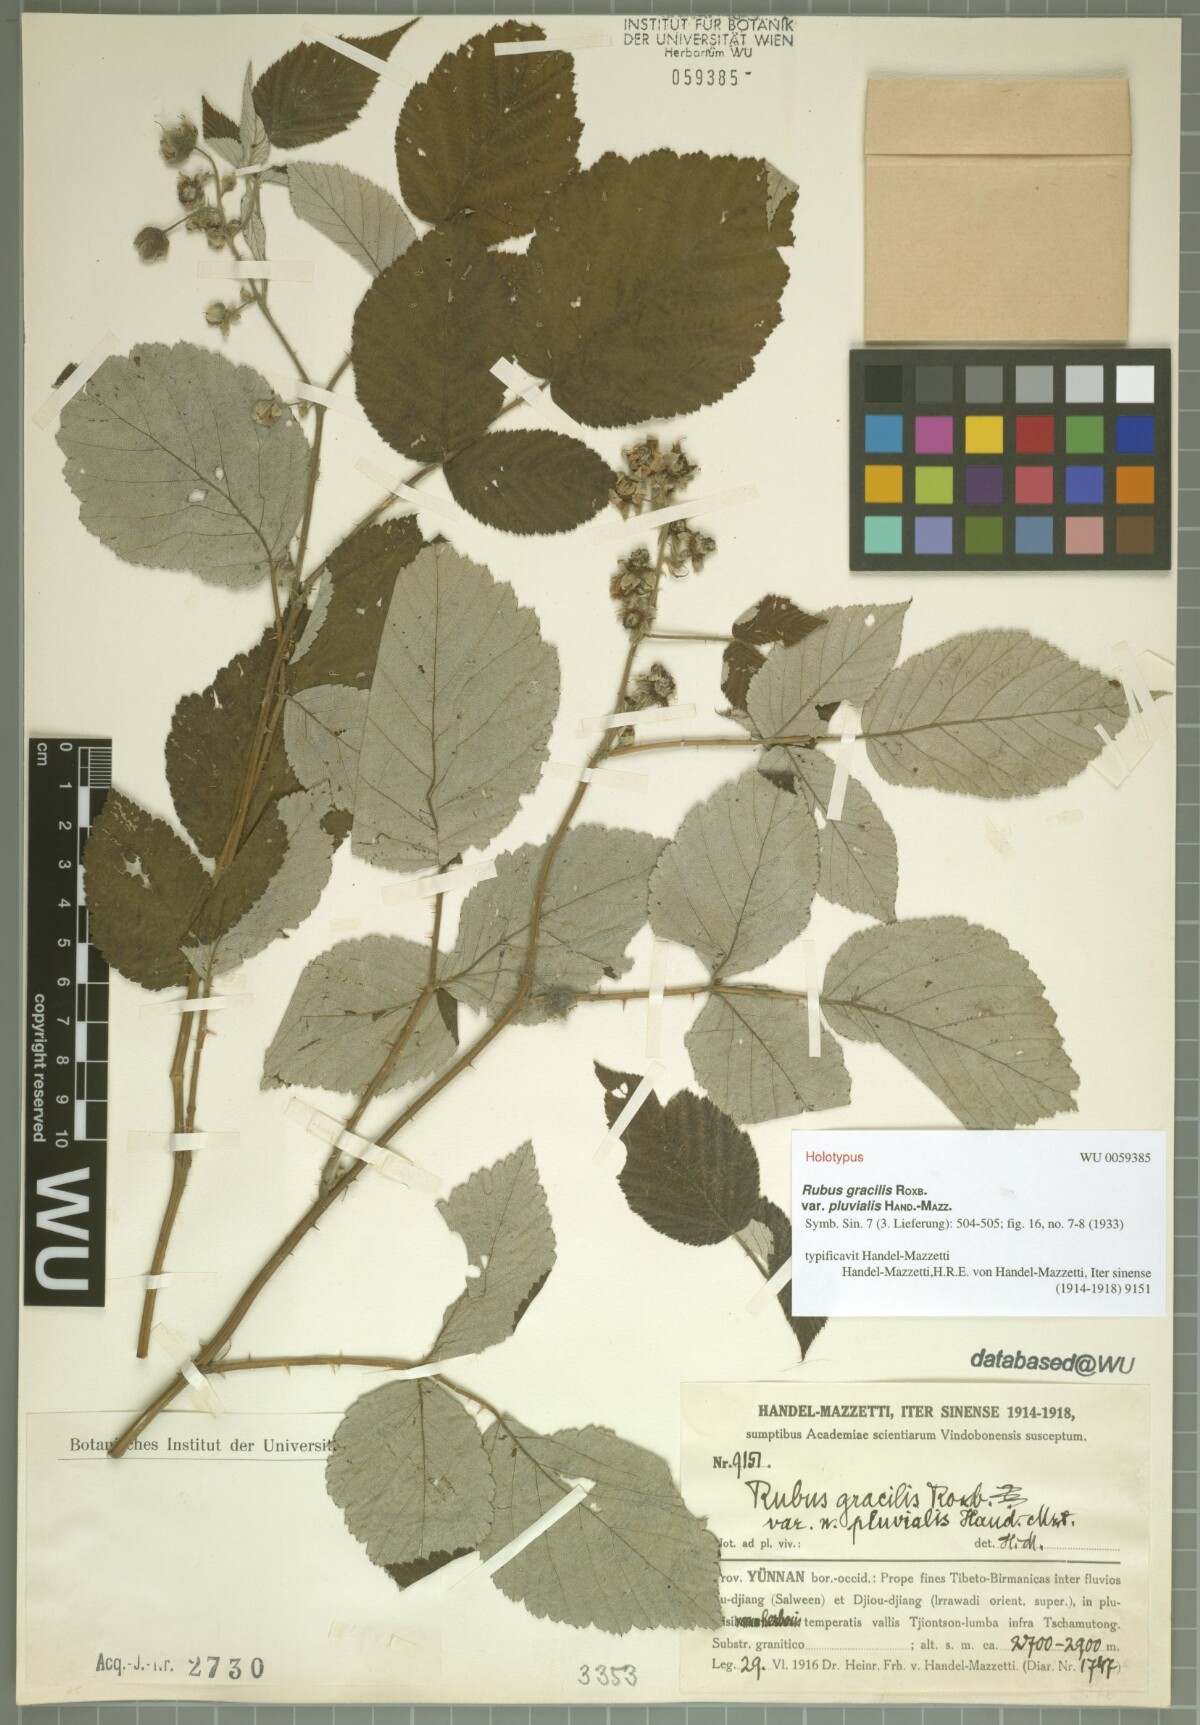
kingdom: Plantae
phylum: Tracheophyta
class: Magnoliopsida
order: Rosales
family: Rosaceae
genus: Rubus
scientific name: Rubus
